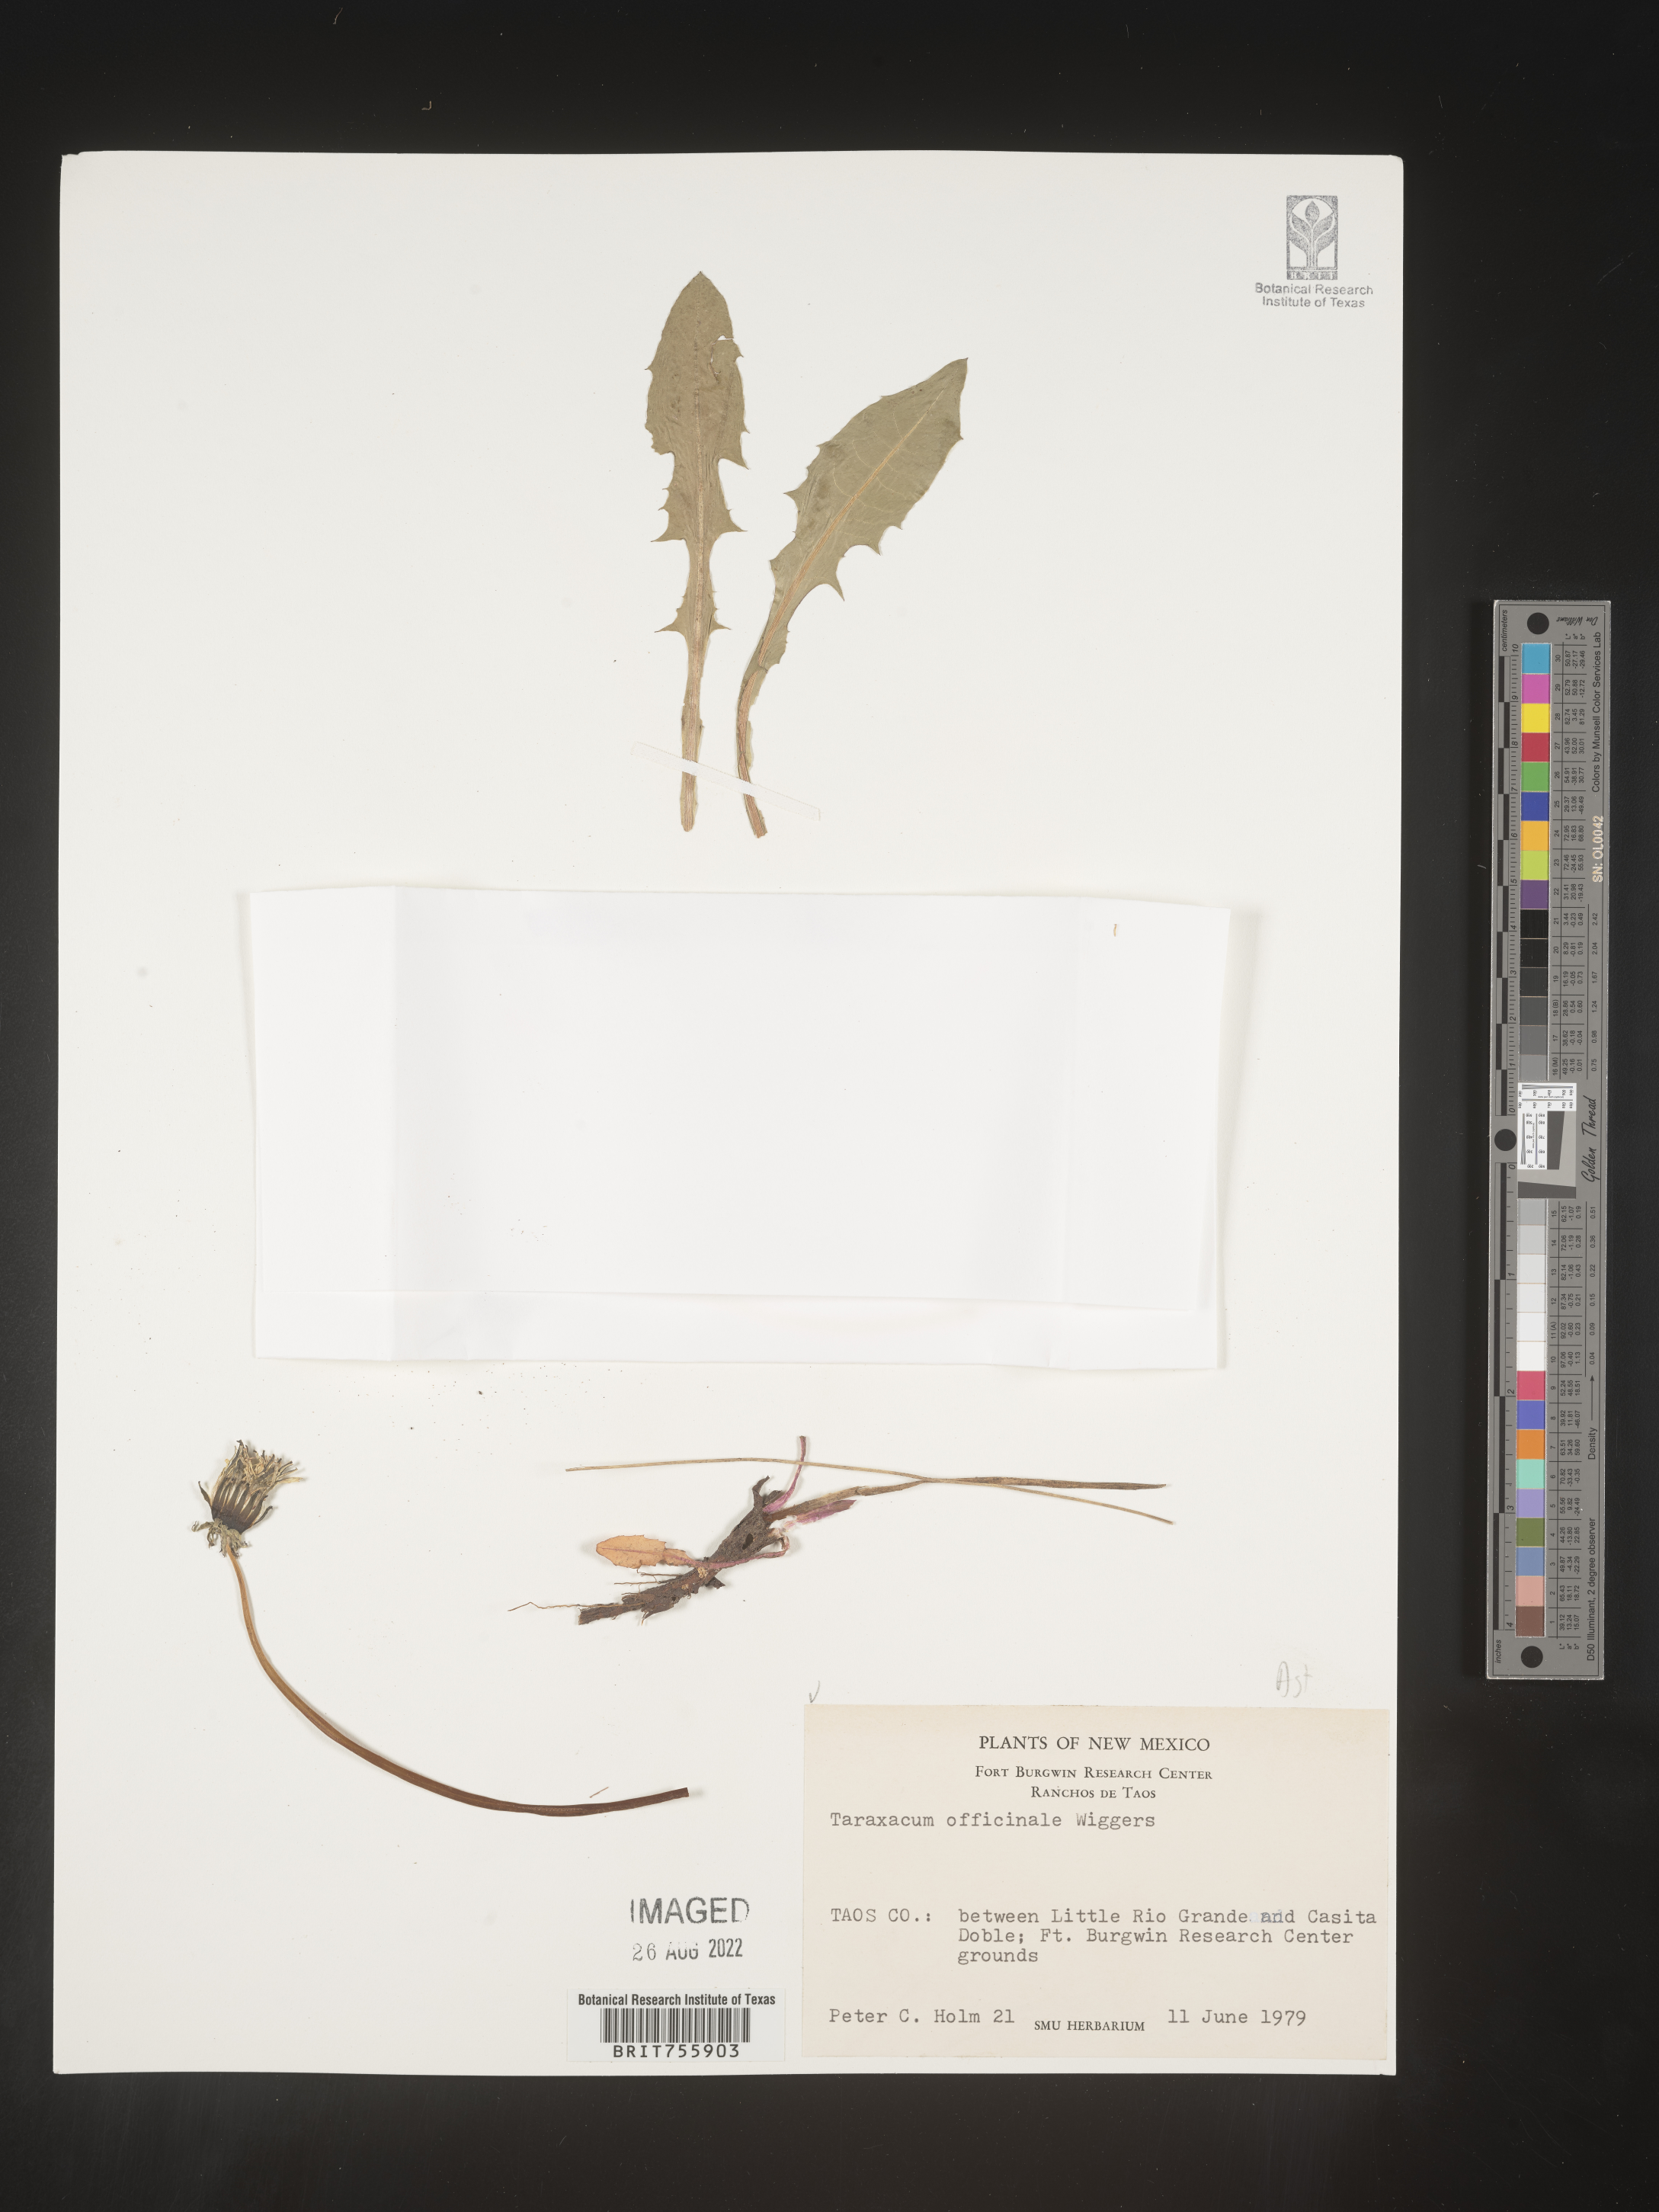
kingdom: Plantae
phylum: Tracheophyta
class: Magnoliopsida
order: Asterales
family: Asteraceae
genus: Taraxacum
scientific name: Taraxacum officinale
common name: Common dandelion
